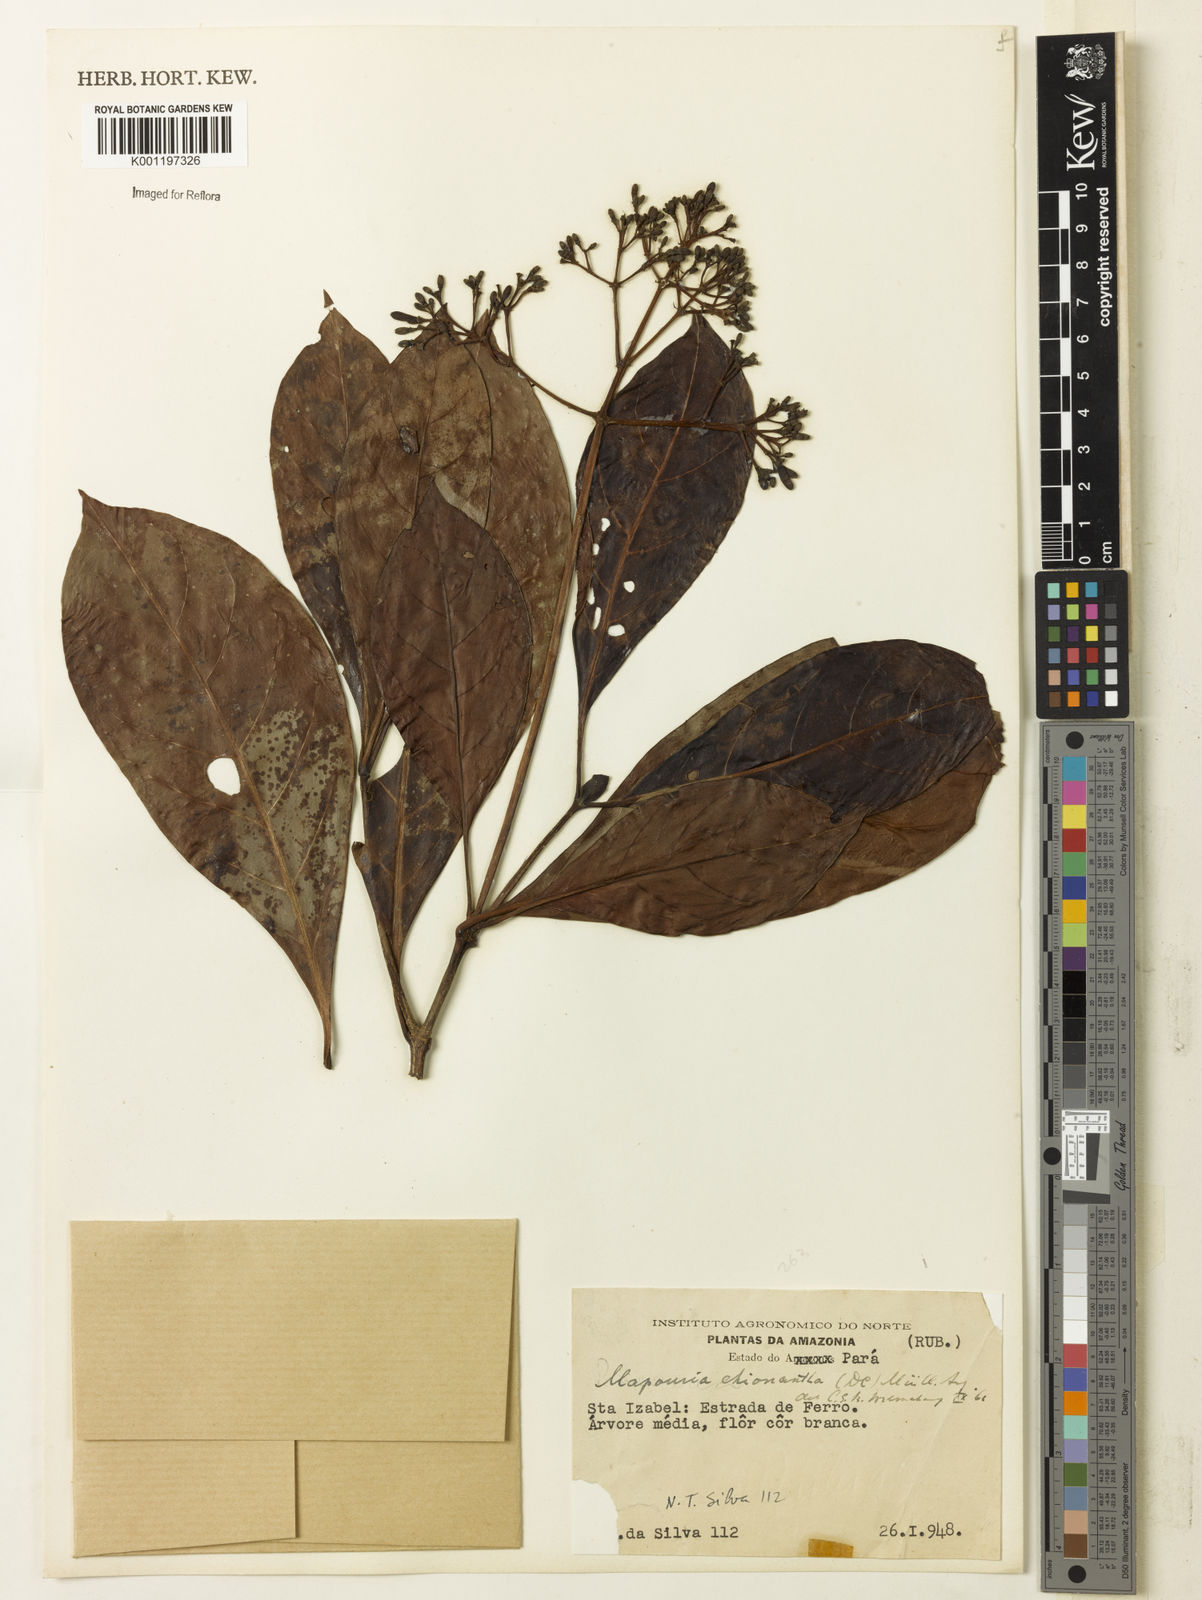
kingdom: Plantae
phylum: Tracheophyta
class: Magnoliopsida
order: Gentianales
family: Rubiaceae
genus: Psychotria
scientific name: Psychotria pedunculosa
